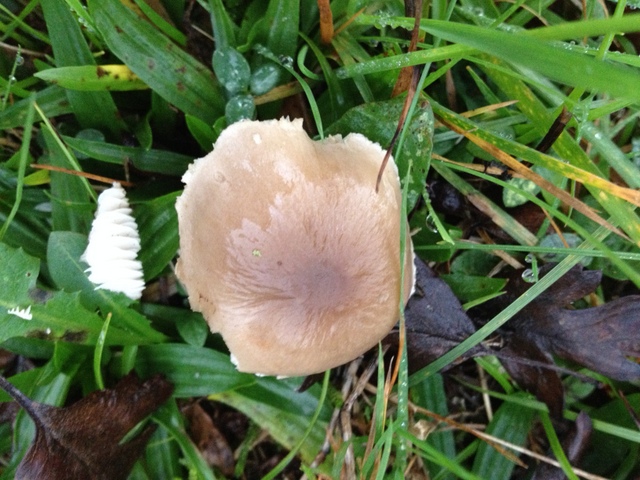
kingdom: Fungi
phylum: Basidiomycota
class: Agaricomycetes
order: Agaricales
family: Tricholomataceae
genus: Dermoloma
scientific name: Dermoloma cuneifolium
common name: eng-nonnehat
